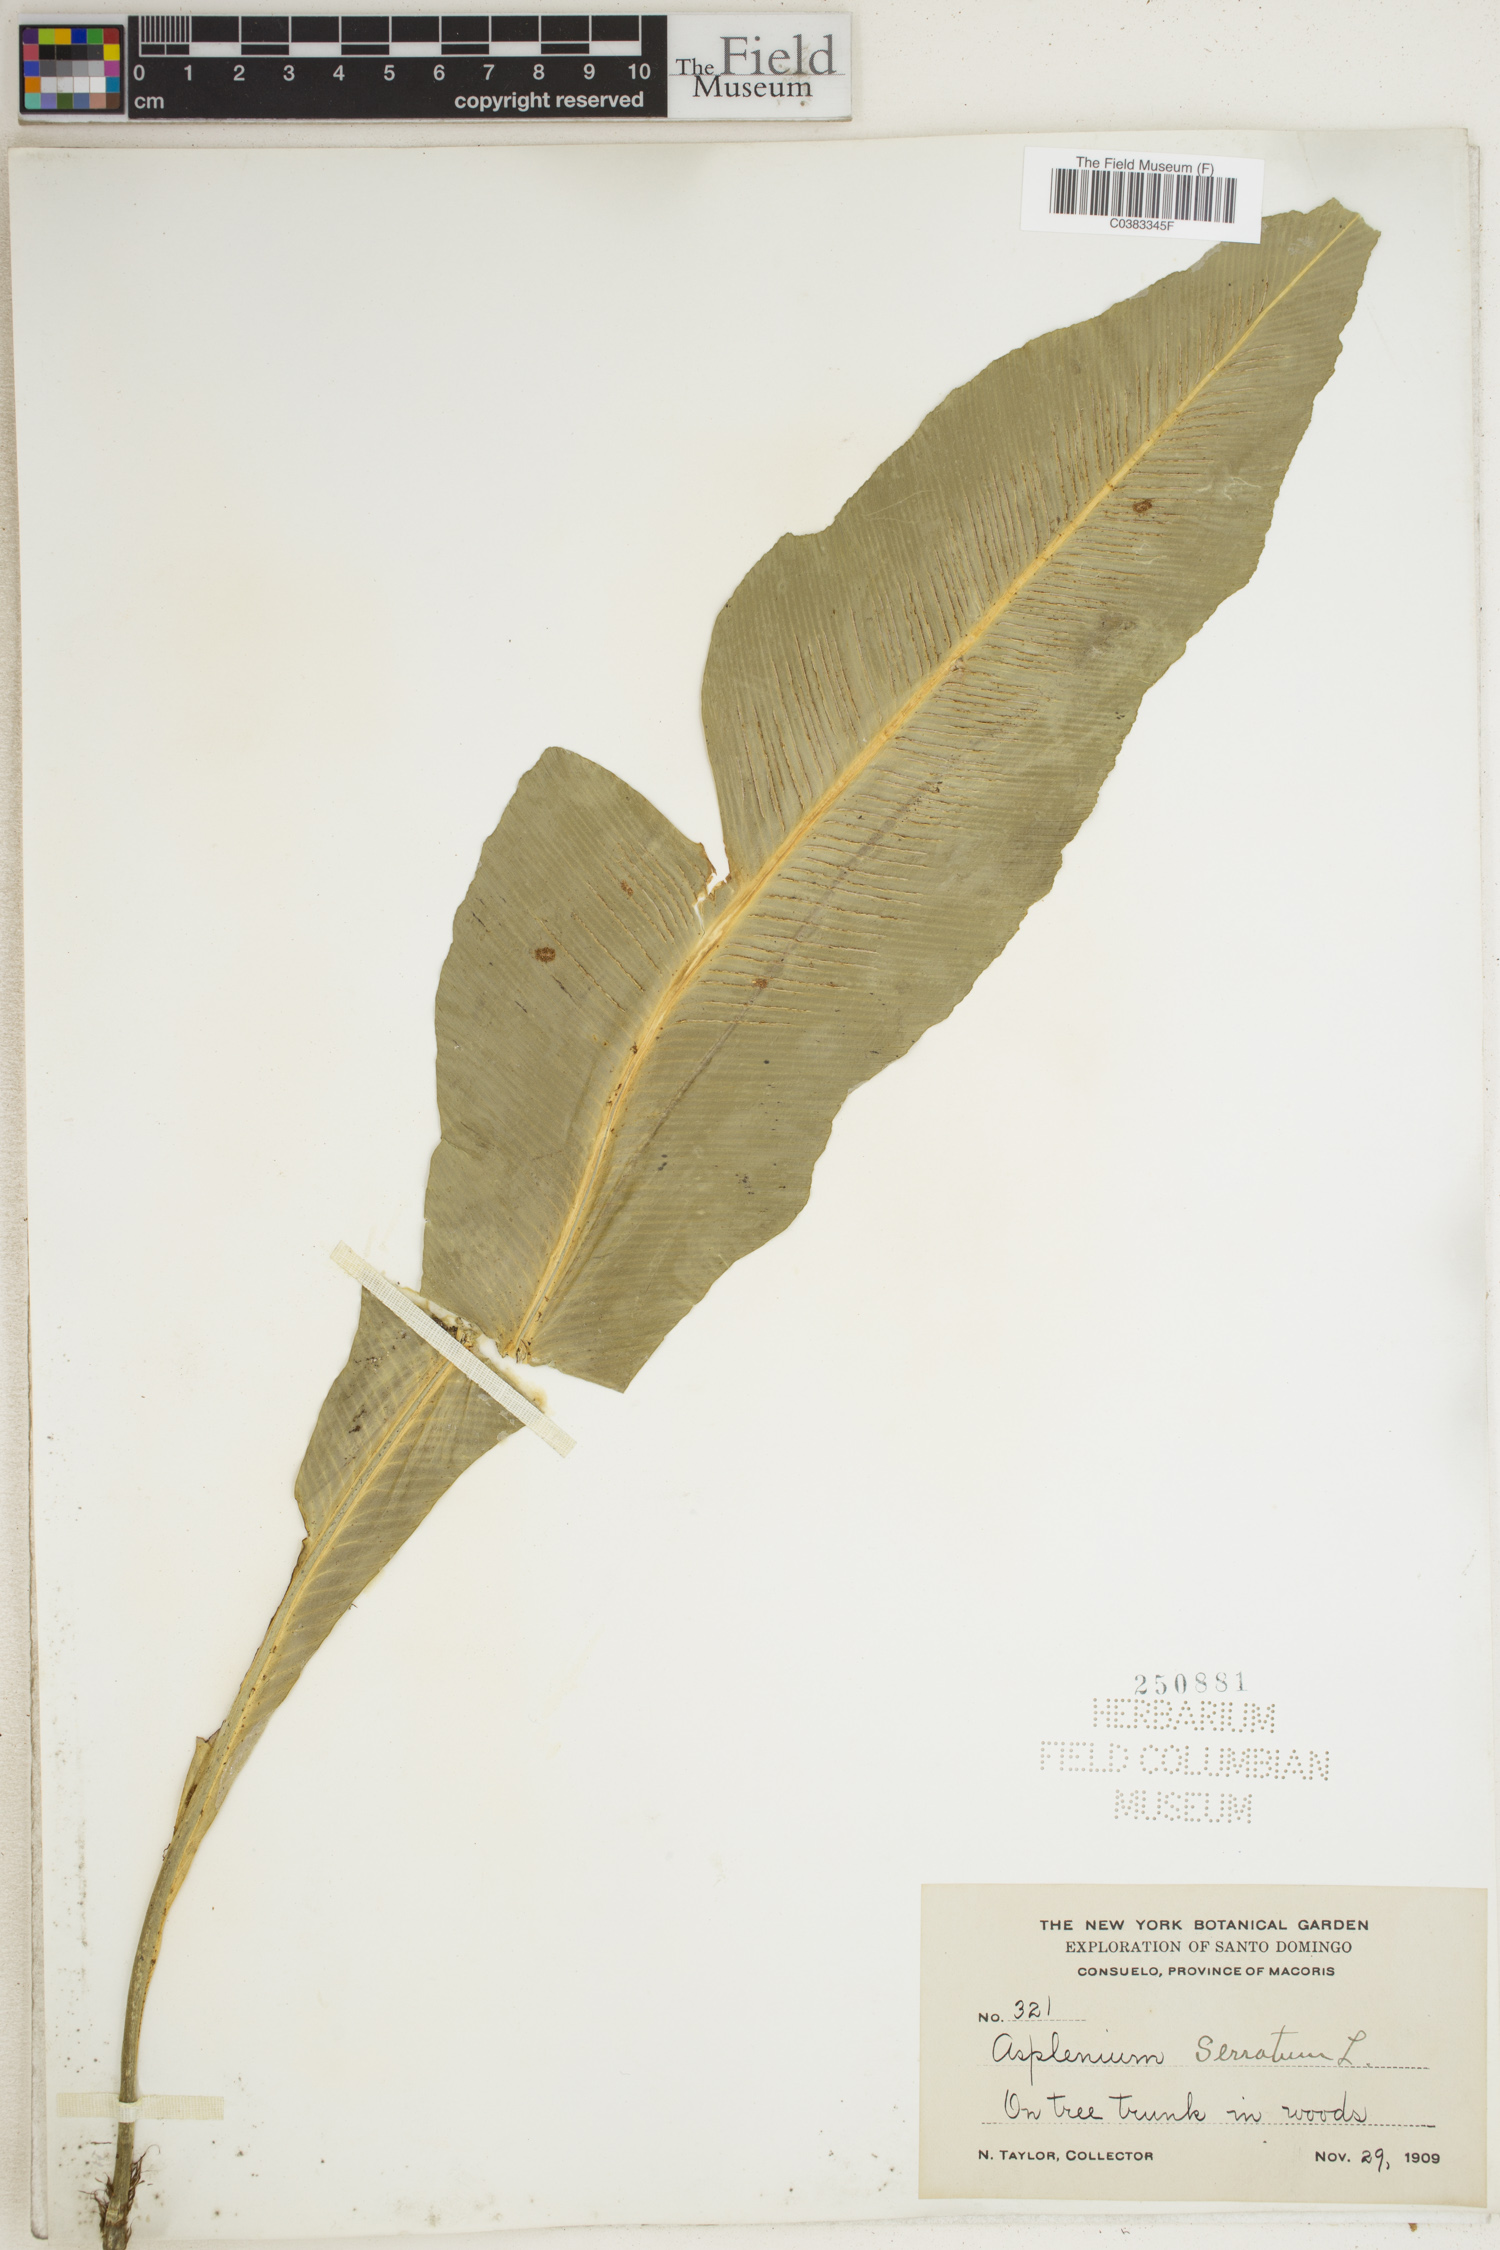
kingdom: Plantae
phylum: Tracheophyta
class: Polypodiopsida
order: Polypodiales
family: Aspleniaceae
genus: Asplenium
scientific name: Asplenium serratum
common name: Wild birdnest fern
